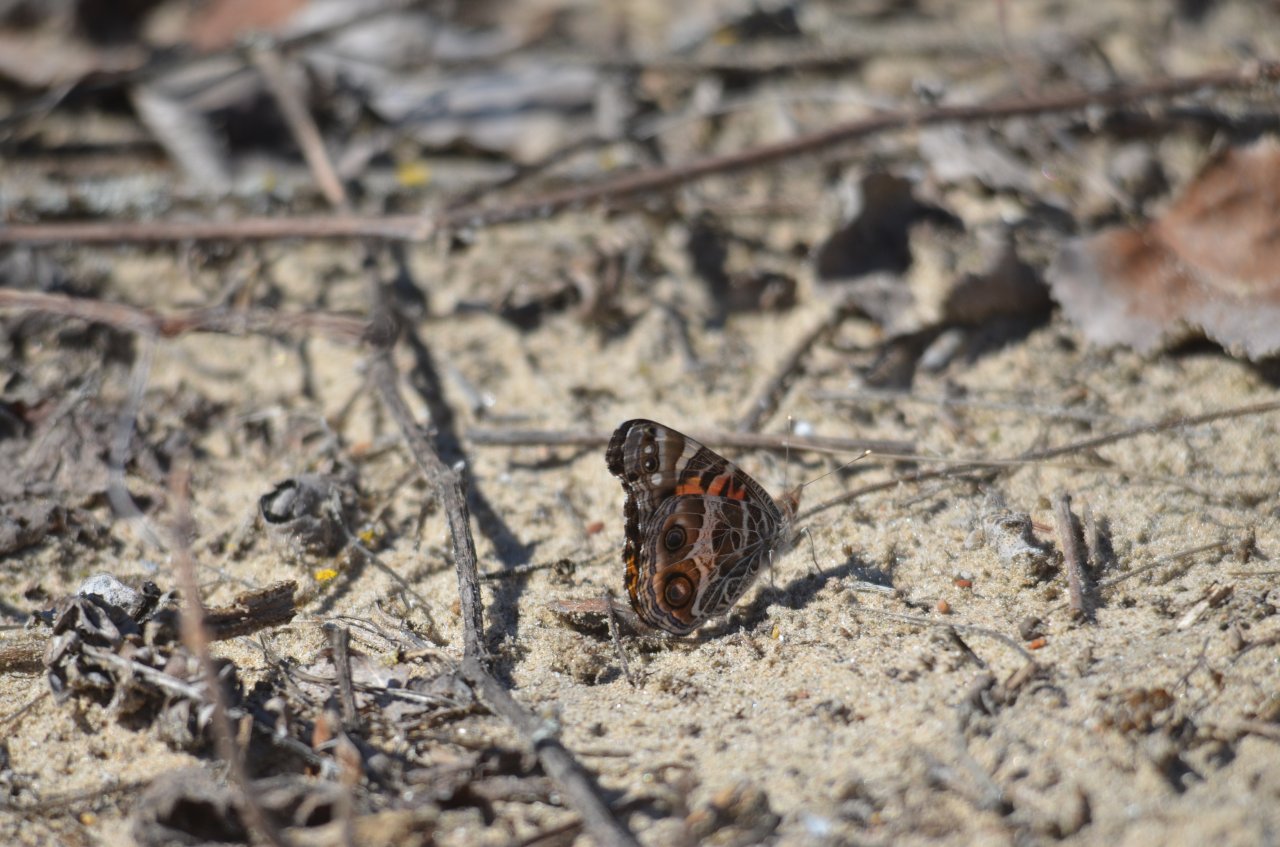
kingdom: Animalia
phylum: Arthropoda
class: Insecta
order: Lepidoptera
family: Nymphalidae
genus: Vanessa
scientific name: Vanessa virginiensis
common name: American Lady
